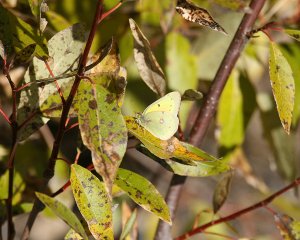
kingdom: Animalia
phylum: Arthropoda
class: Insecta
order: Lepidoptera
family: Pieridae
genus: Colias
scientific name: Colias eurytheme
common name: Orange Sulphur
